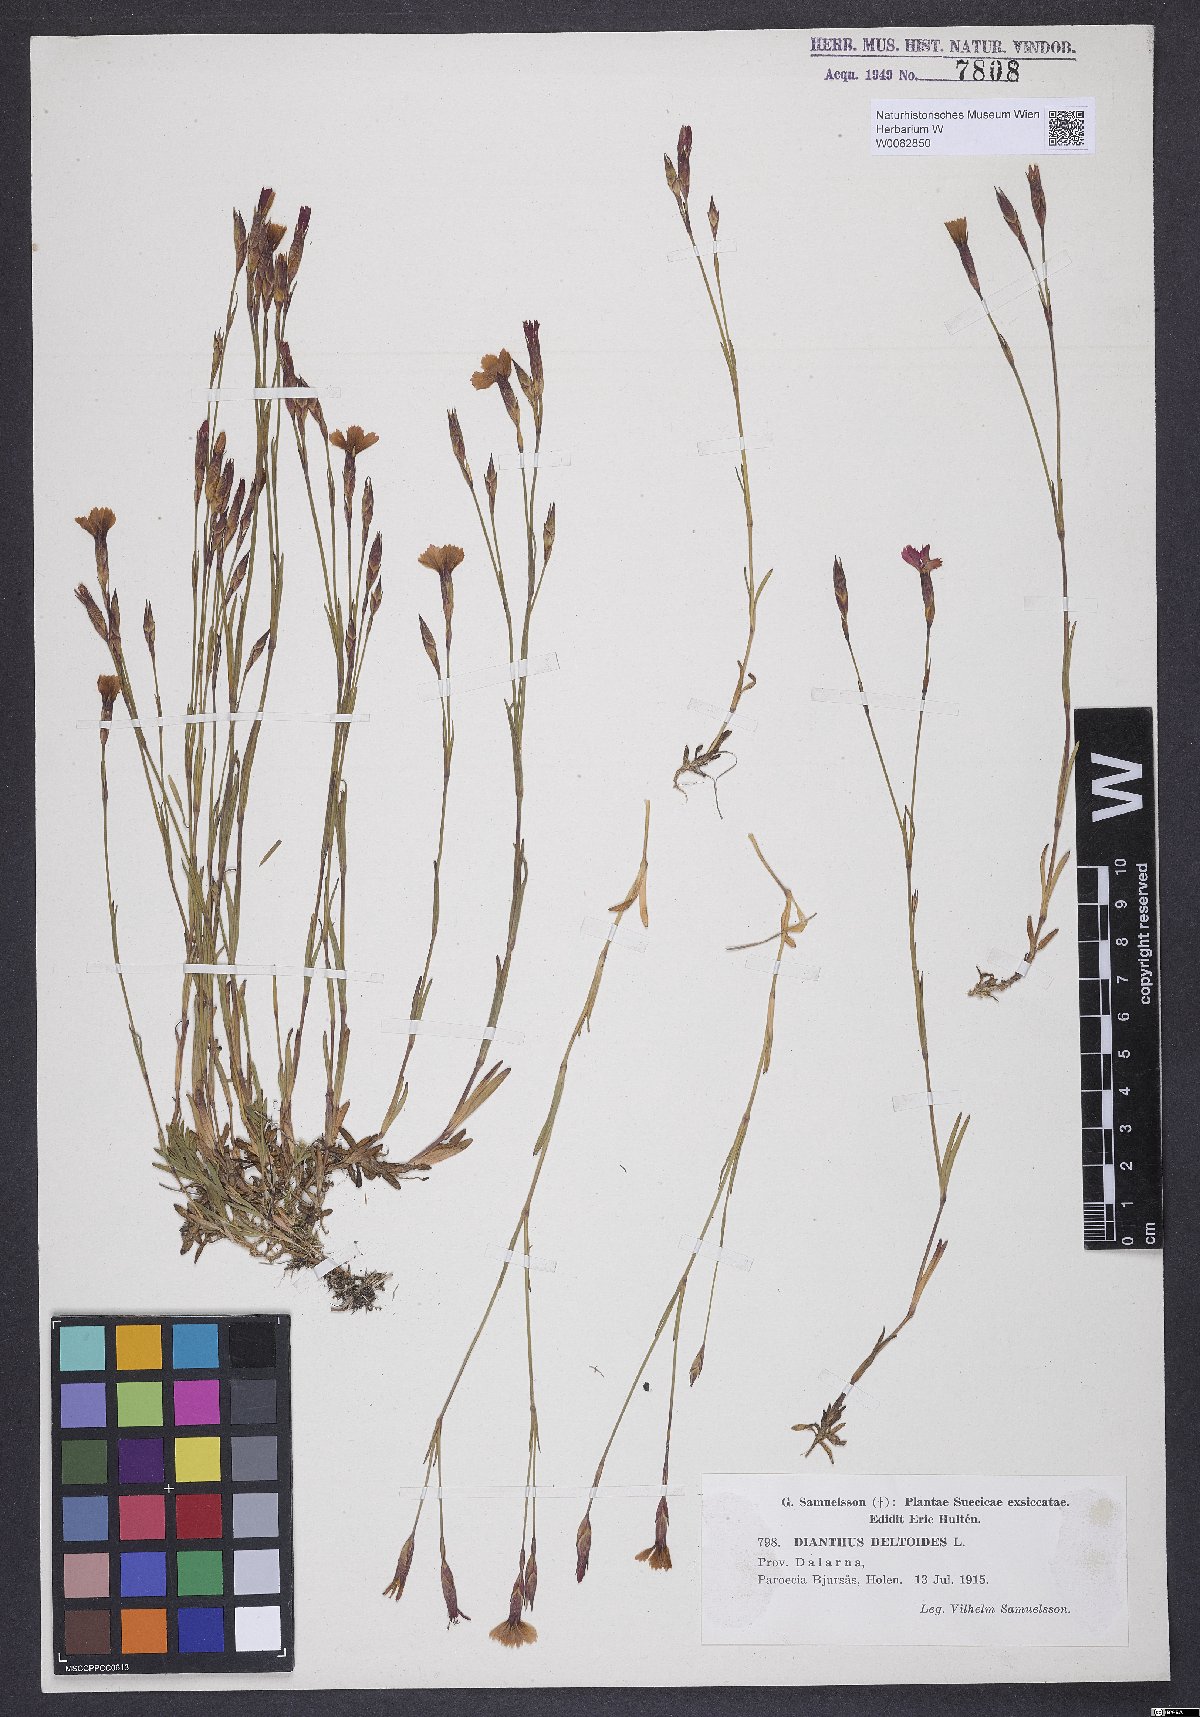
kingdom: Plantae
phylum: Tracheophyta
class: Magnoliopsida
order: Caryophyllales
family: Caryophyllaceae
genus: Dianthus
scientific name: Dianthus deltoides
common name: Maiden pink
